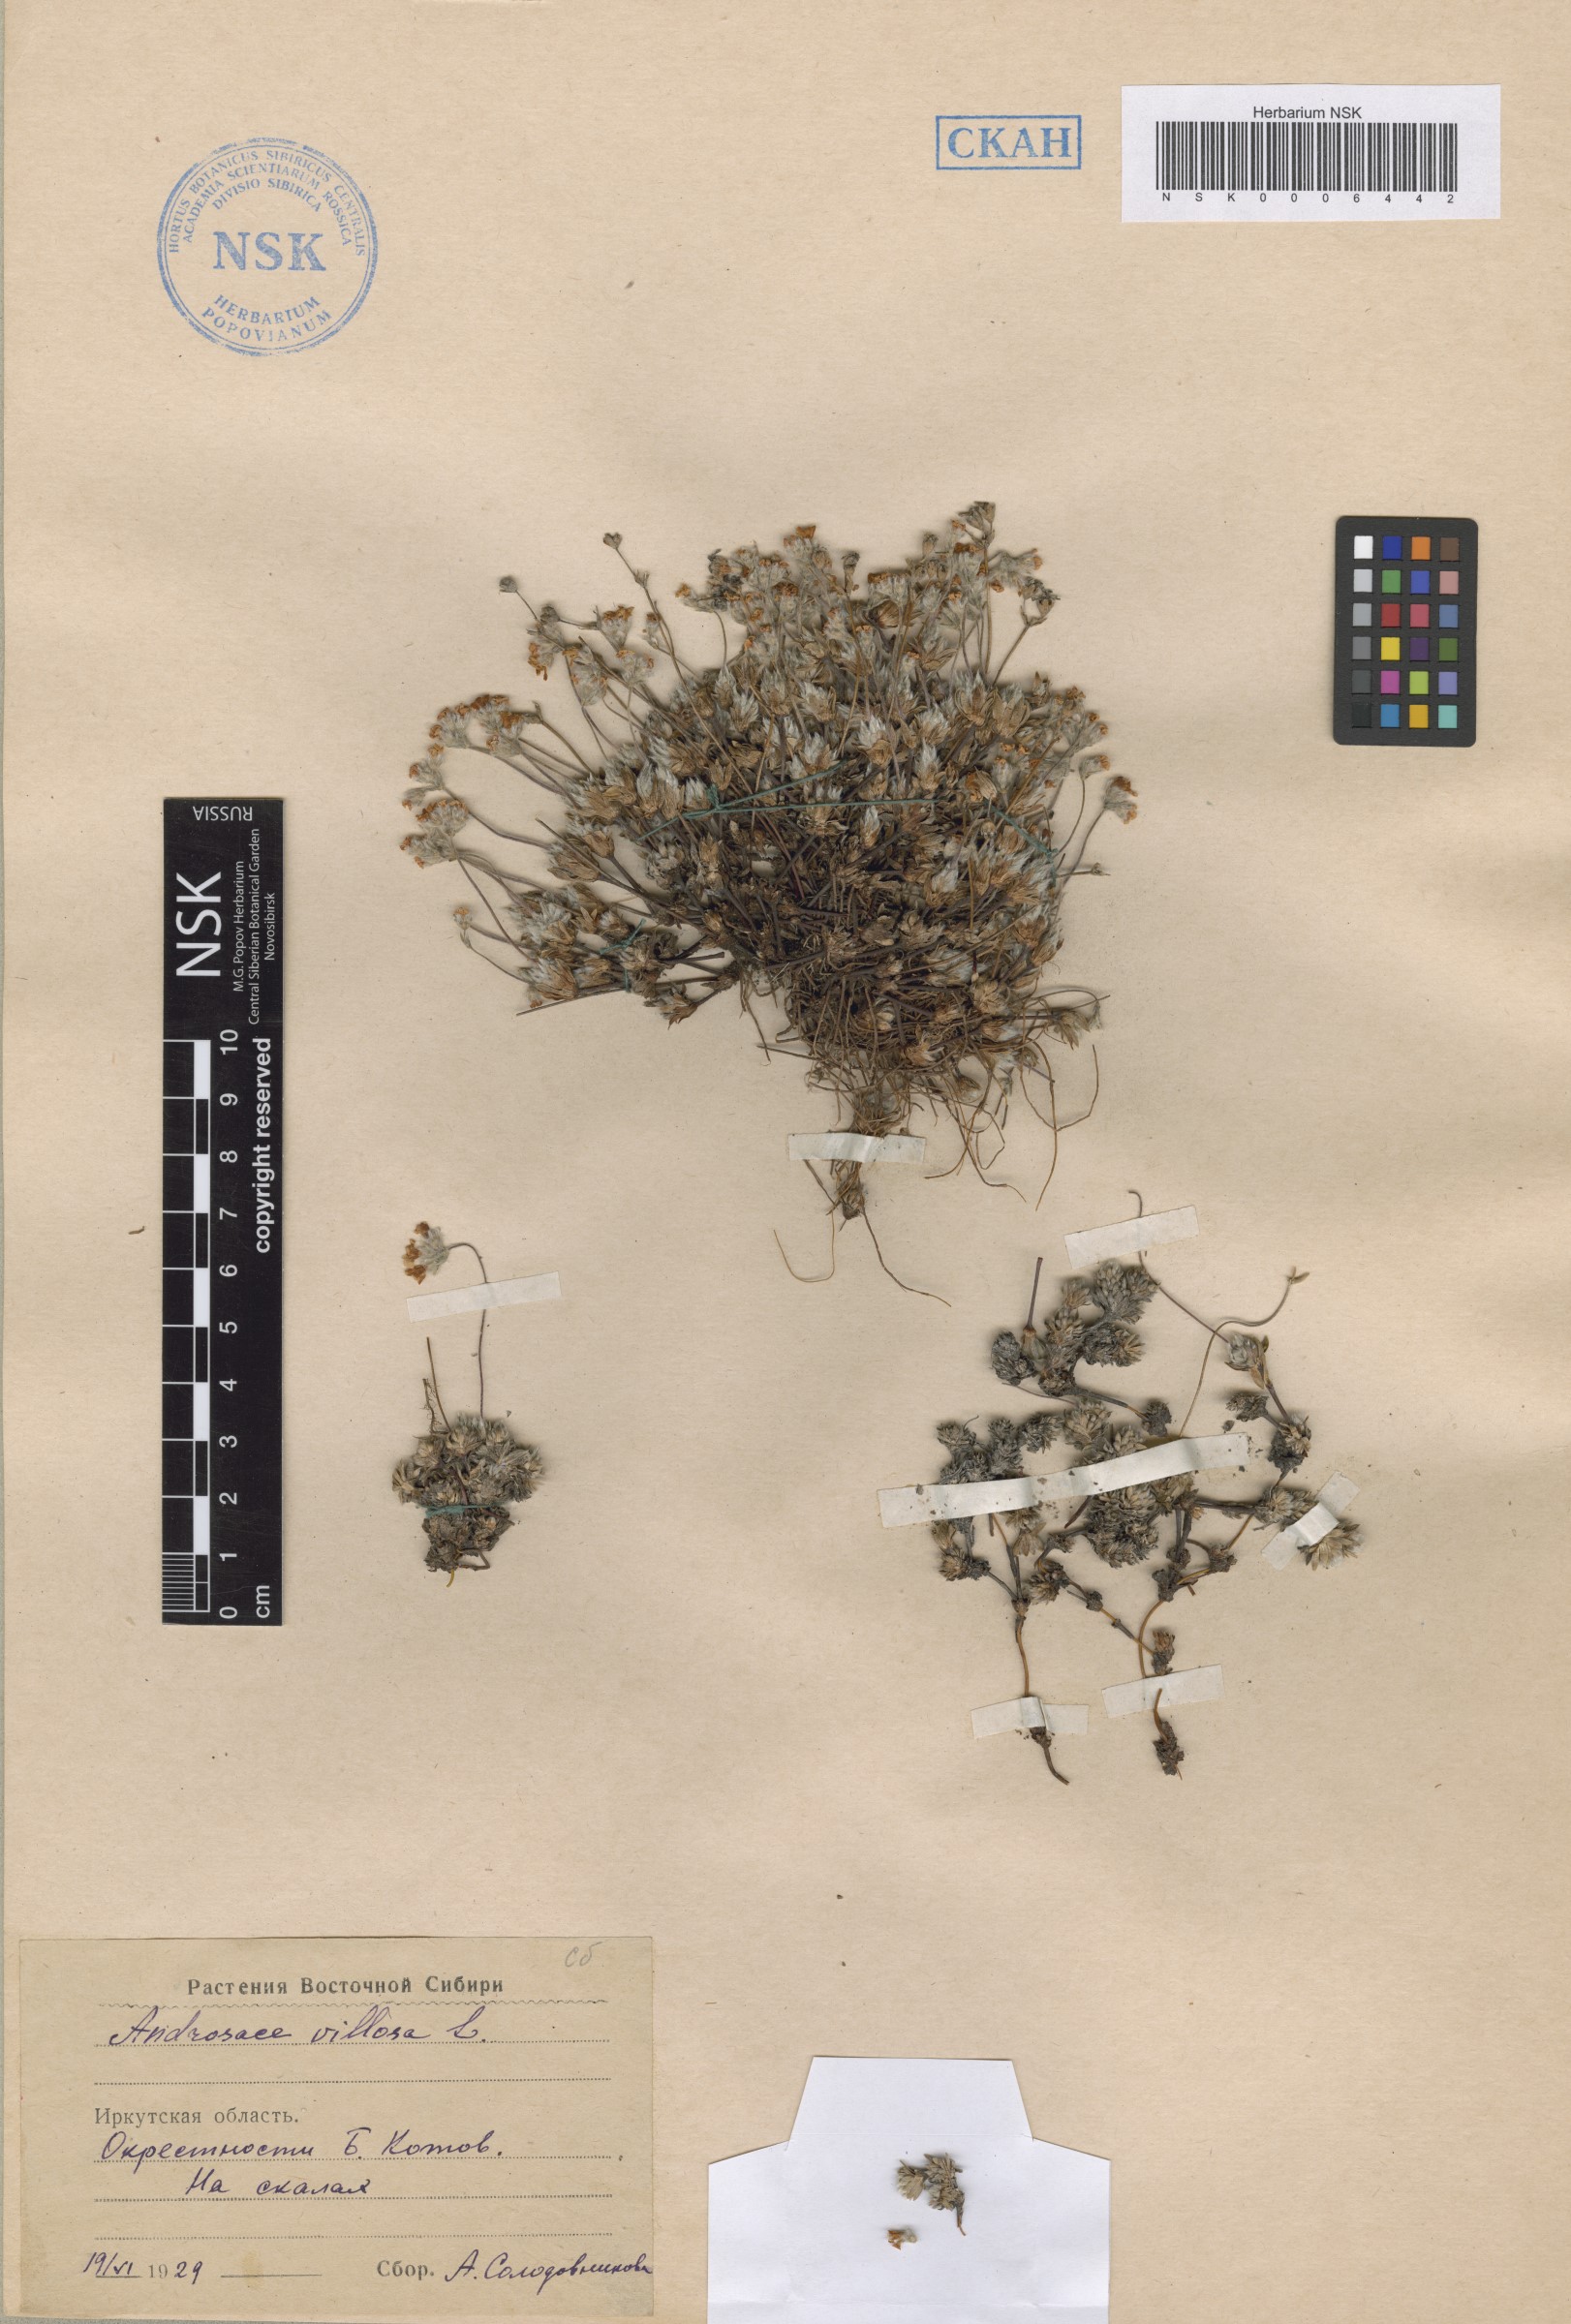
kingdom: Plantae
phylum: Tracheophyta
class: Magnoliopsida
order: Ericales
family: Primulaceae
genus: Androsace
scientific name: Androsace incana
